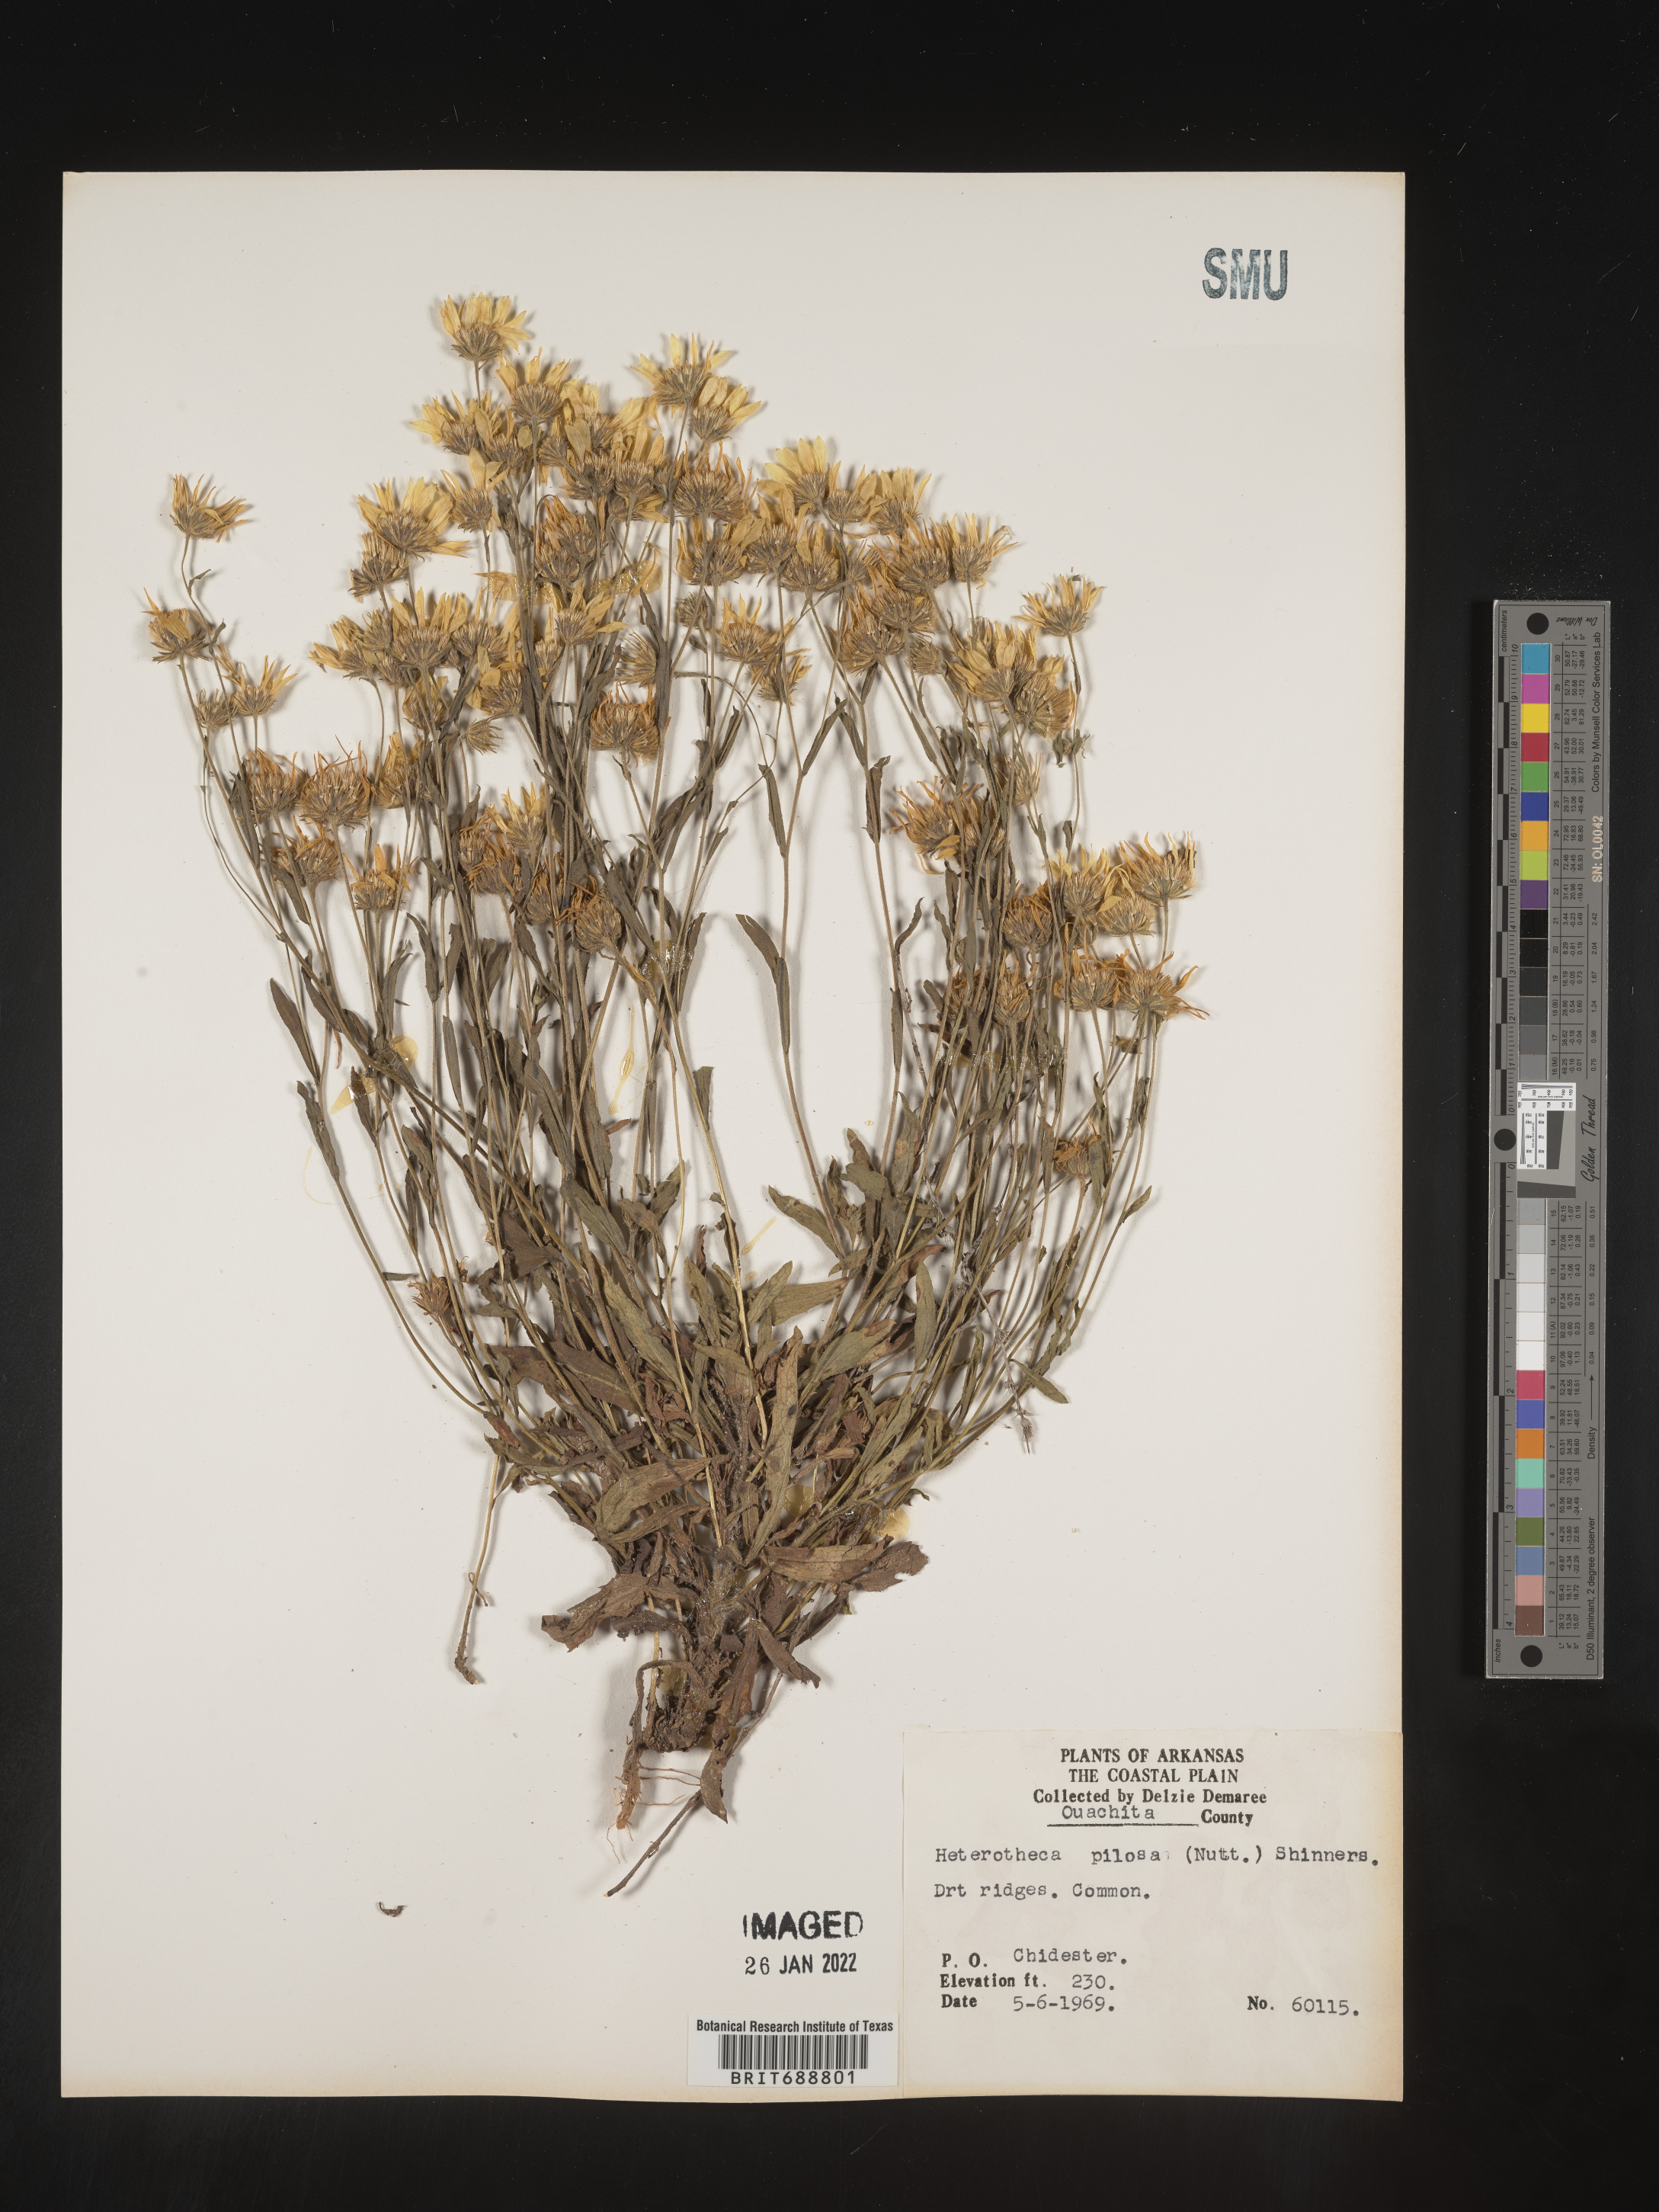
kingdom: Plantae
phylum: Tracheophyta
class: Magnoliopsida
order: Asterales
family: Asteraceae
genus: Bradburia
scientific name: Bradburia pilosa
